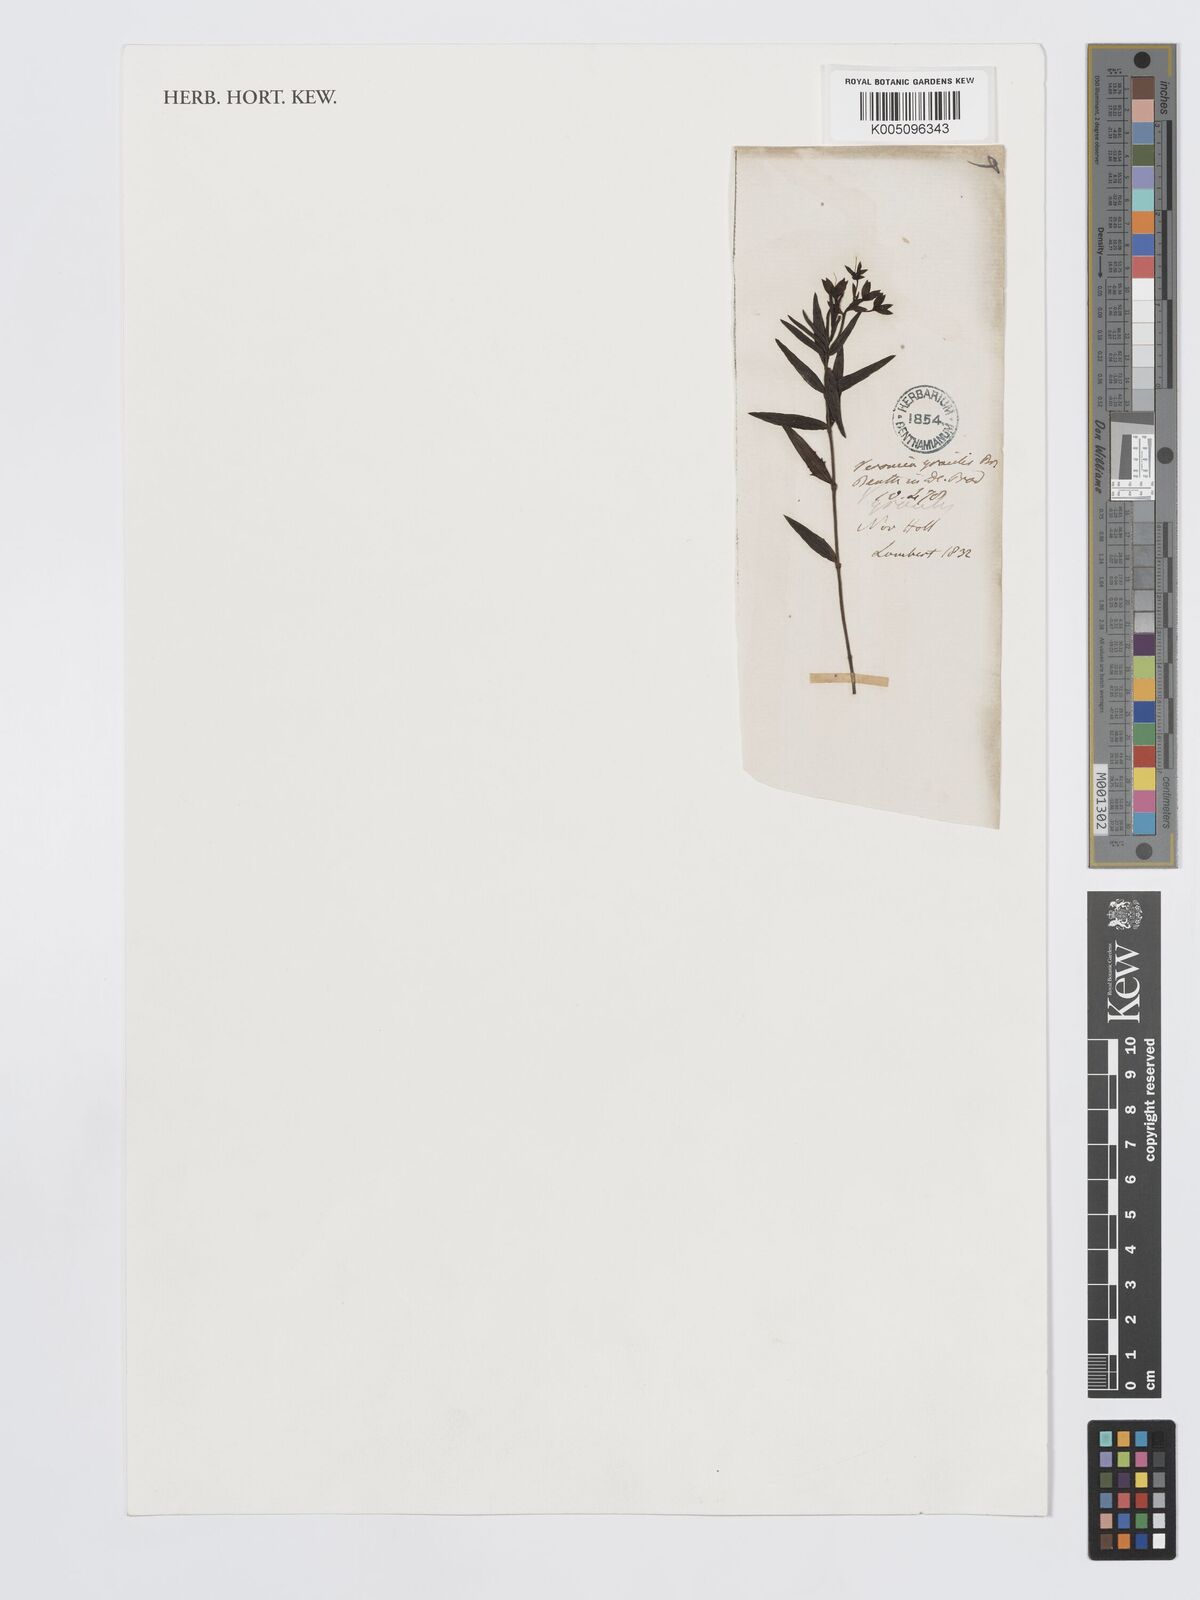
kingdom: Plantae
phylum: Tracheophyta
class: Magnoliopsida
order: Lamiales
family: Plantaginaceae
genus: Veronica
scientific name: Veronica gracilis
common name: Slender speedwell
